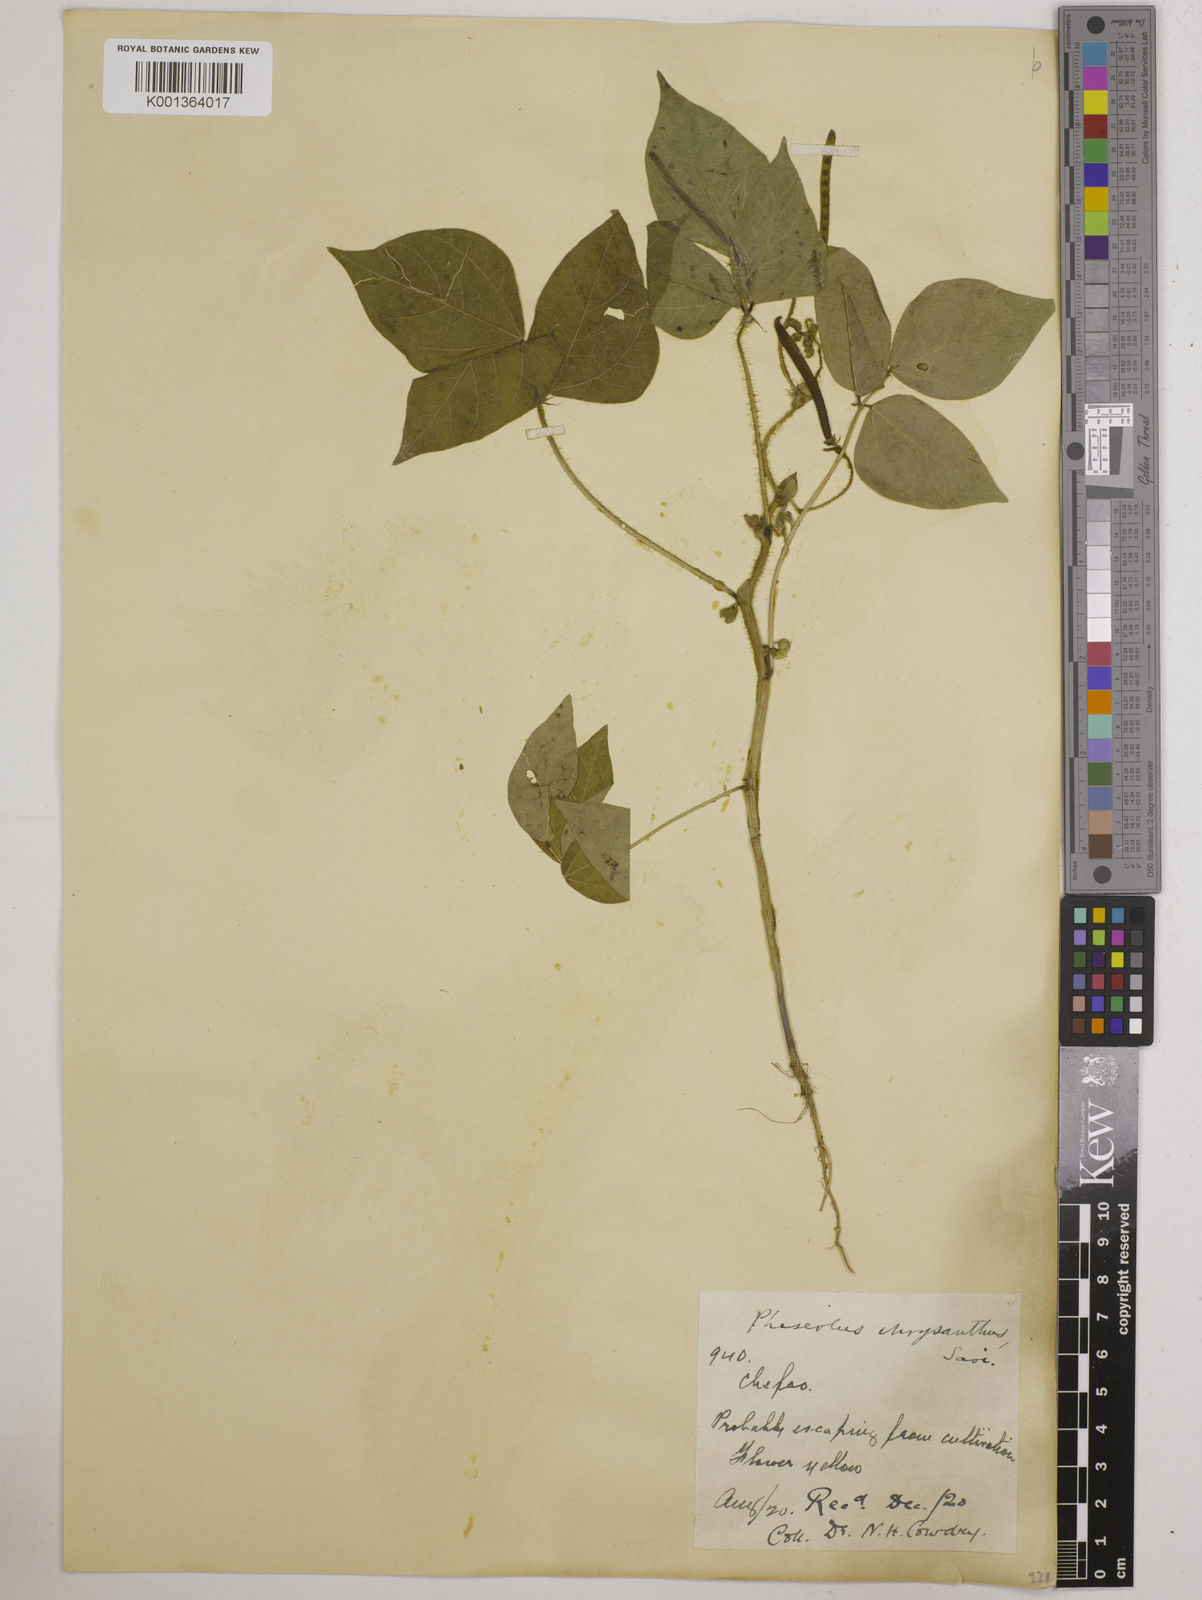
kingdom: Plantae
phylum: Tracheophyta
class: Magnoliopsida
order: Fabales
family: Fabaceae
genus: Vigna
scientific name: Vigna radiata
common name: Mung-bean
